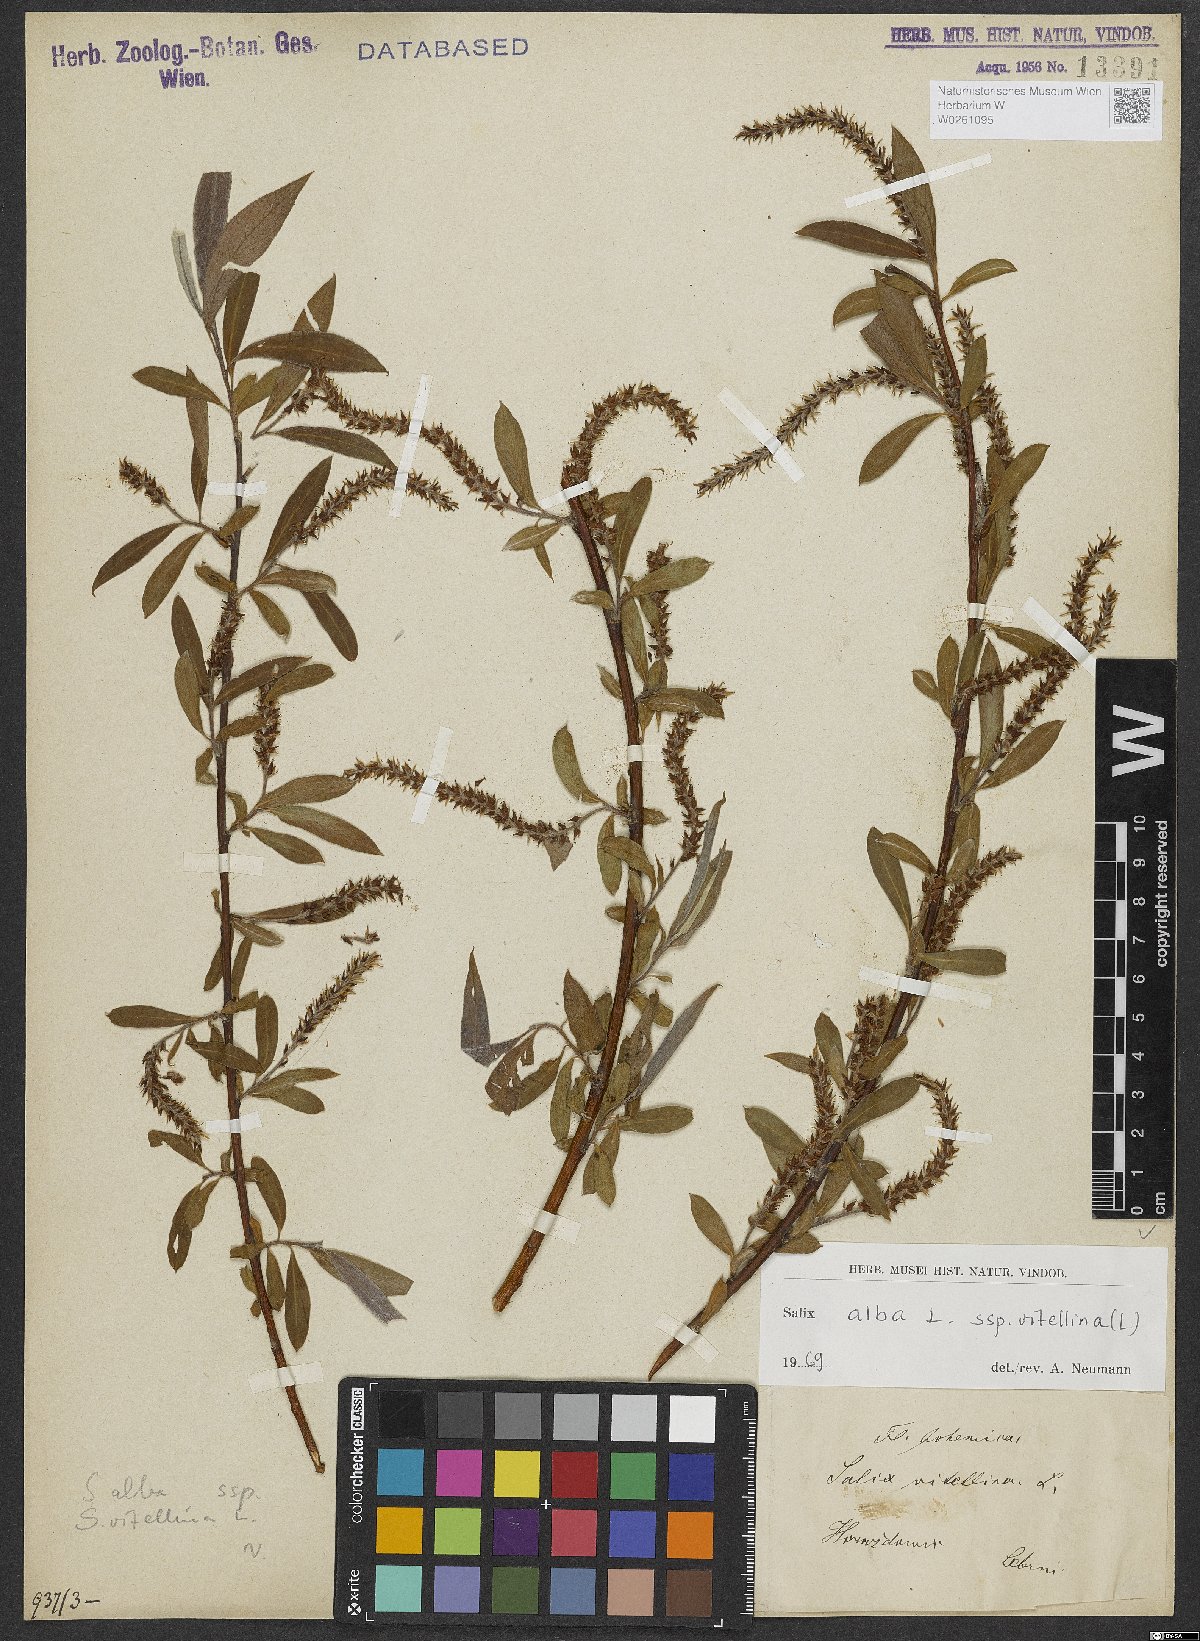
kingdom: Plantae
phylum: Tracheophyta
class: Magnoliopsida
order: Malpighiales
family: Salicaceae
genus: Salix
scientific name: Salix alba
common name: White willow
